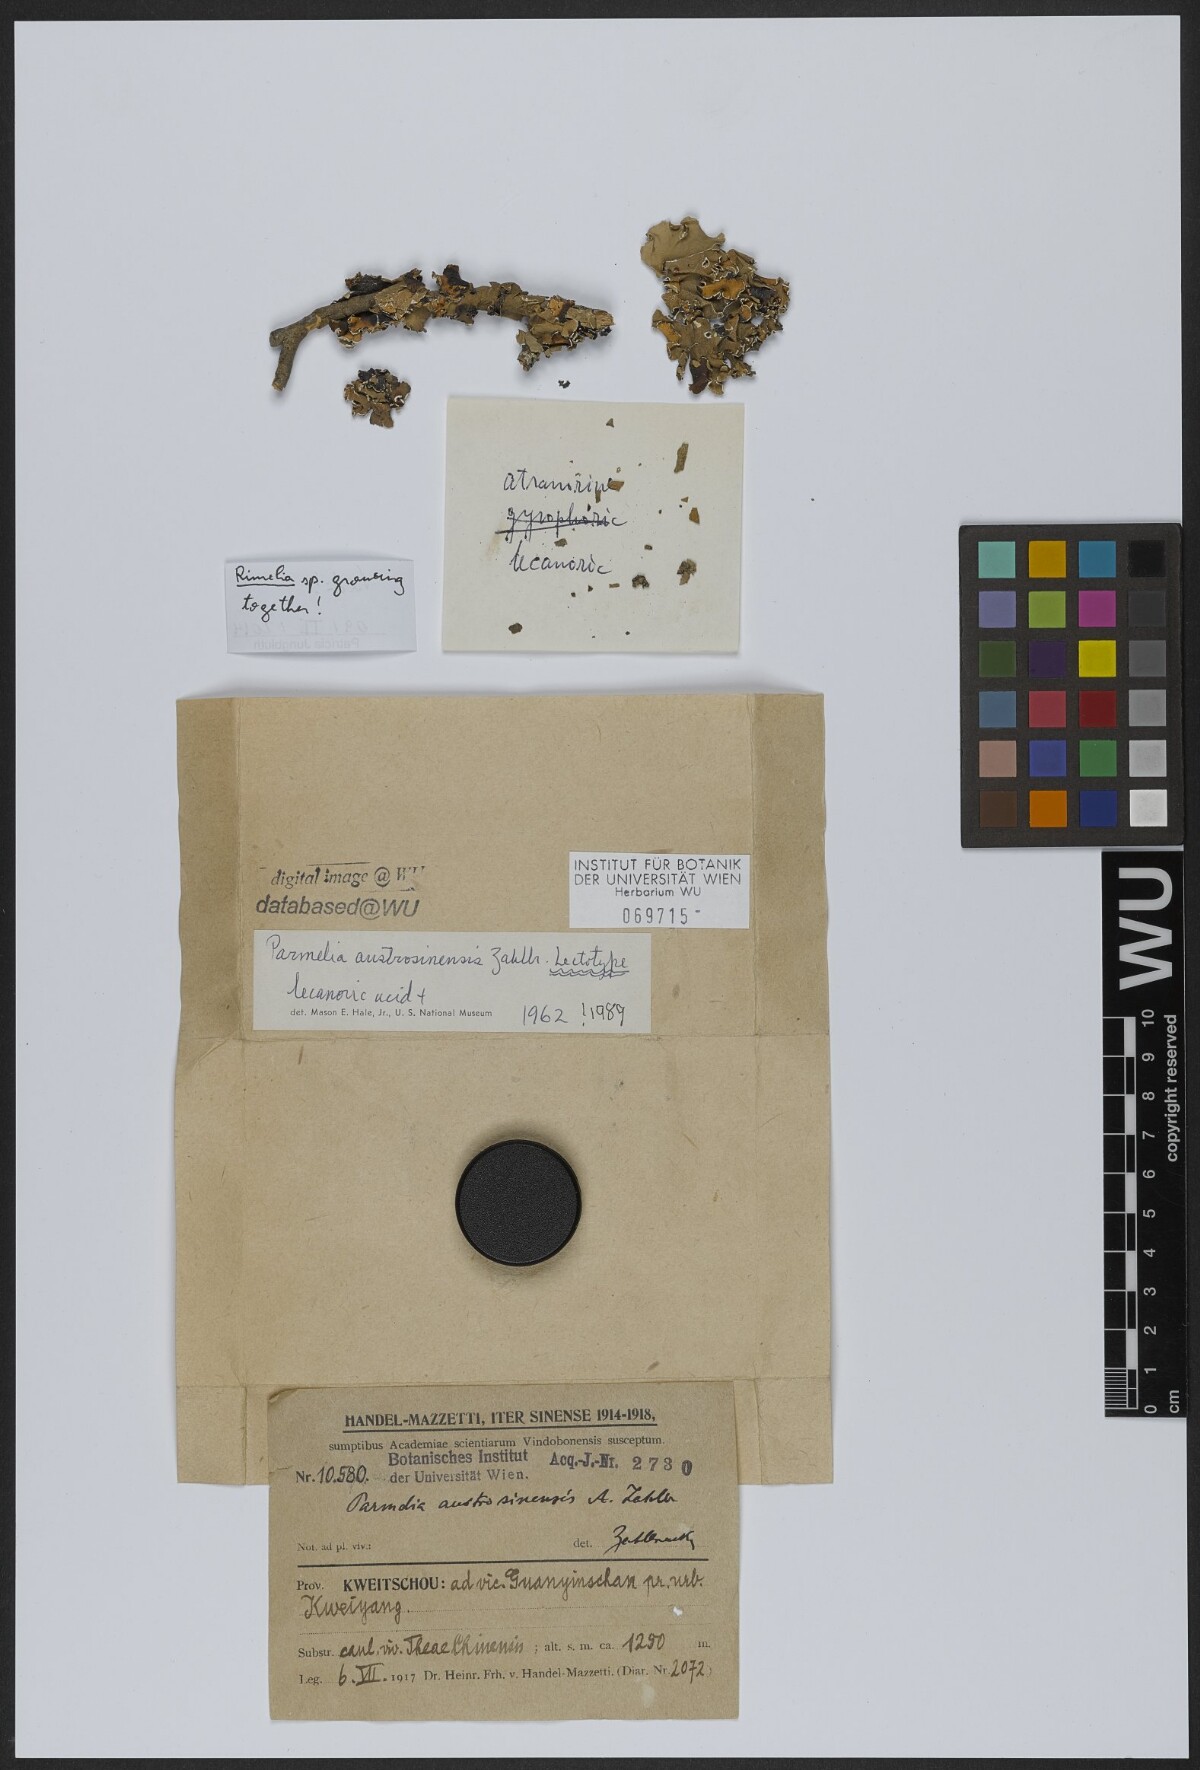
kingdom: Fungi
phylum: Ascomycota
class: Lecanoromycetes
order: Lecanorales
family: Parmeliaceae
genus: Parmotrema
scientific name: Parmotrema austrosinense
